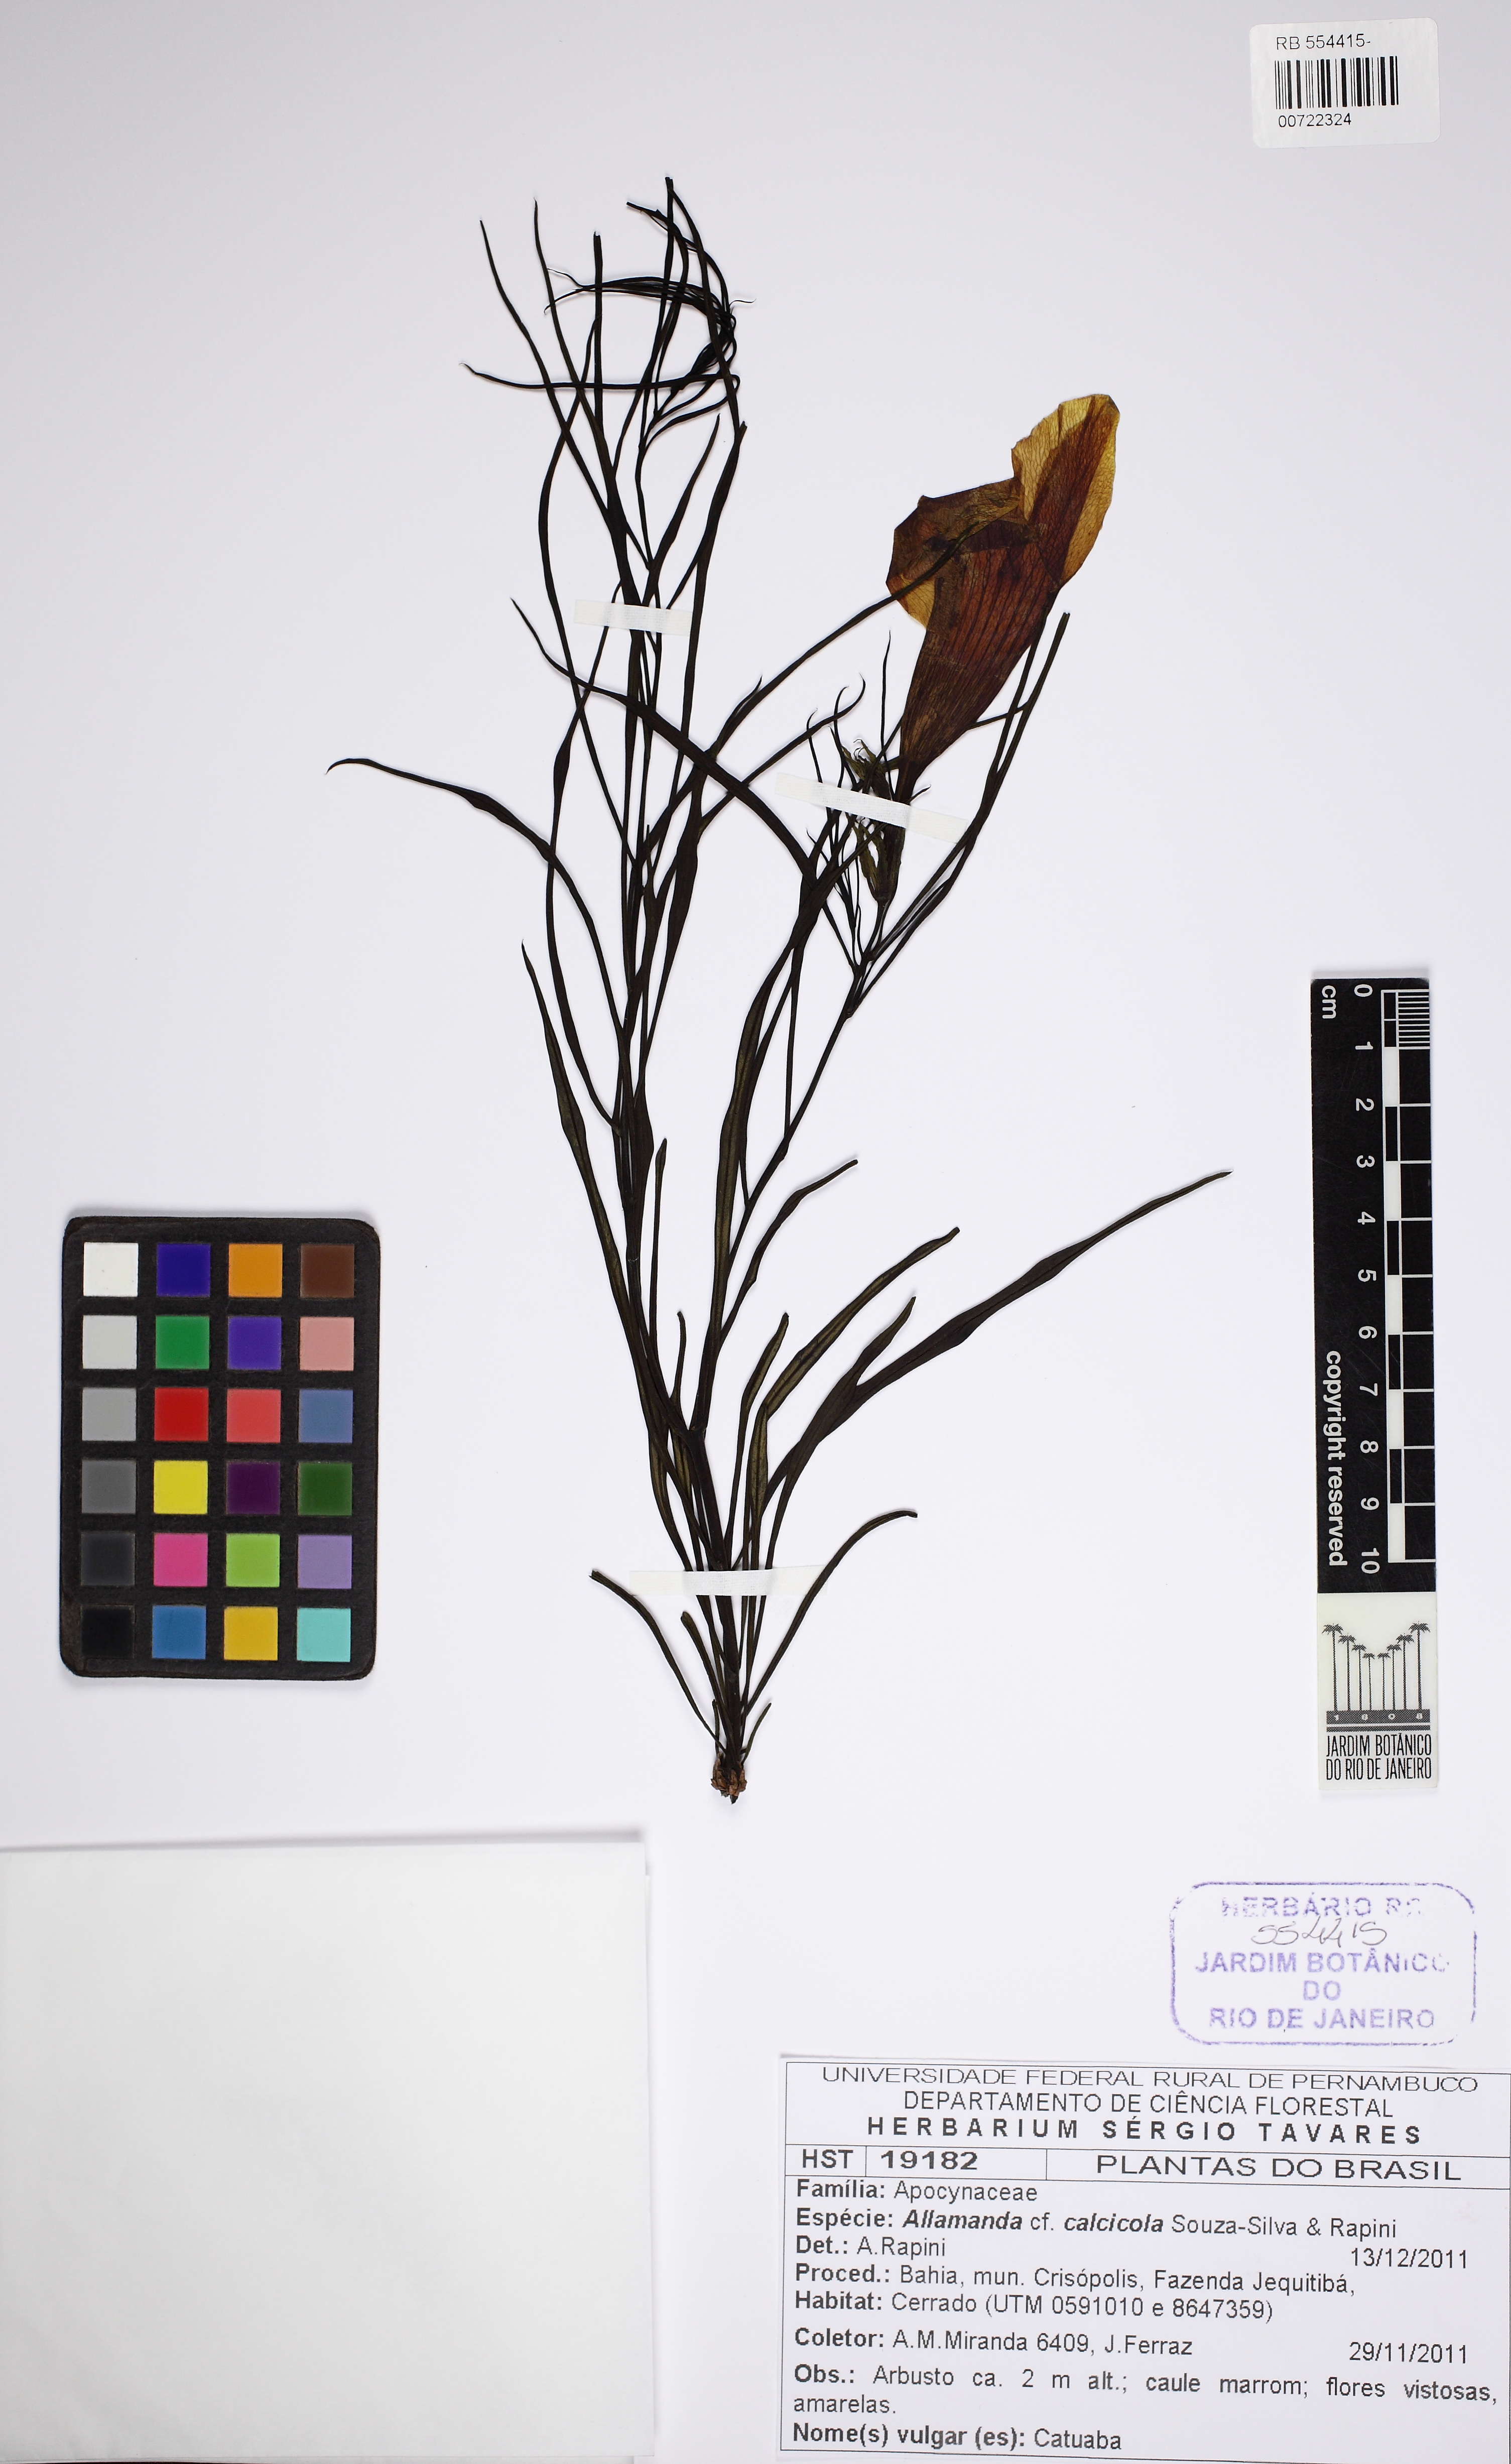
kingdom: Plantae
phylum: Tracheophyta
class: Magnoliopsida
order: Gentianales
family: Apocynaceae
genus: Allamanda
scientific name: Allamanda calcicola
